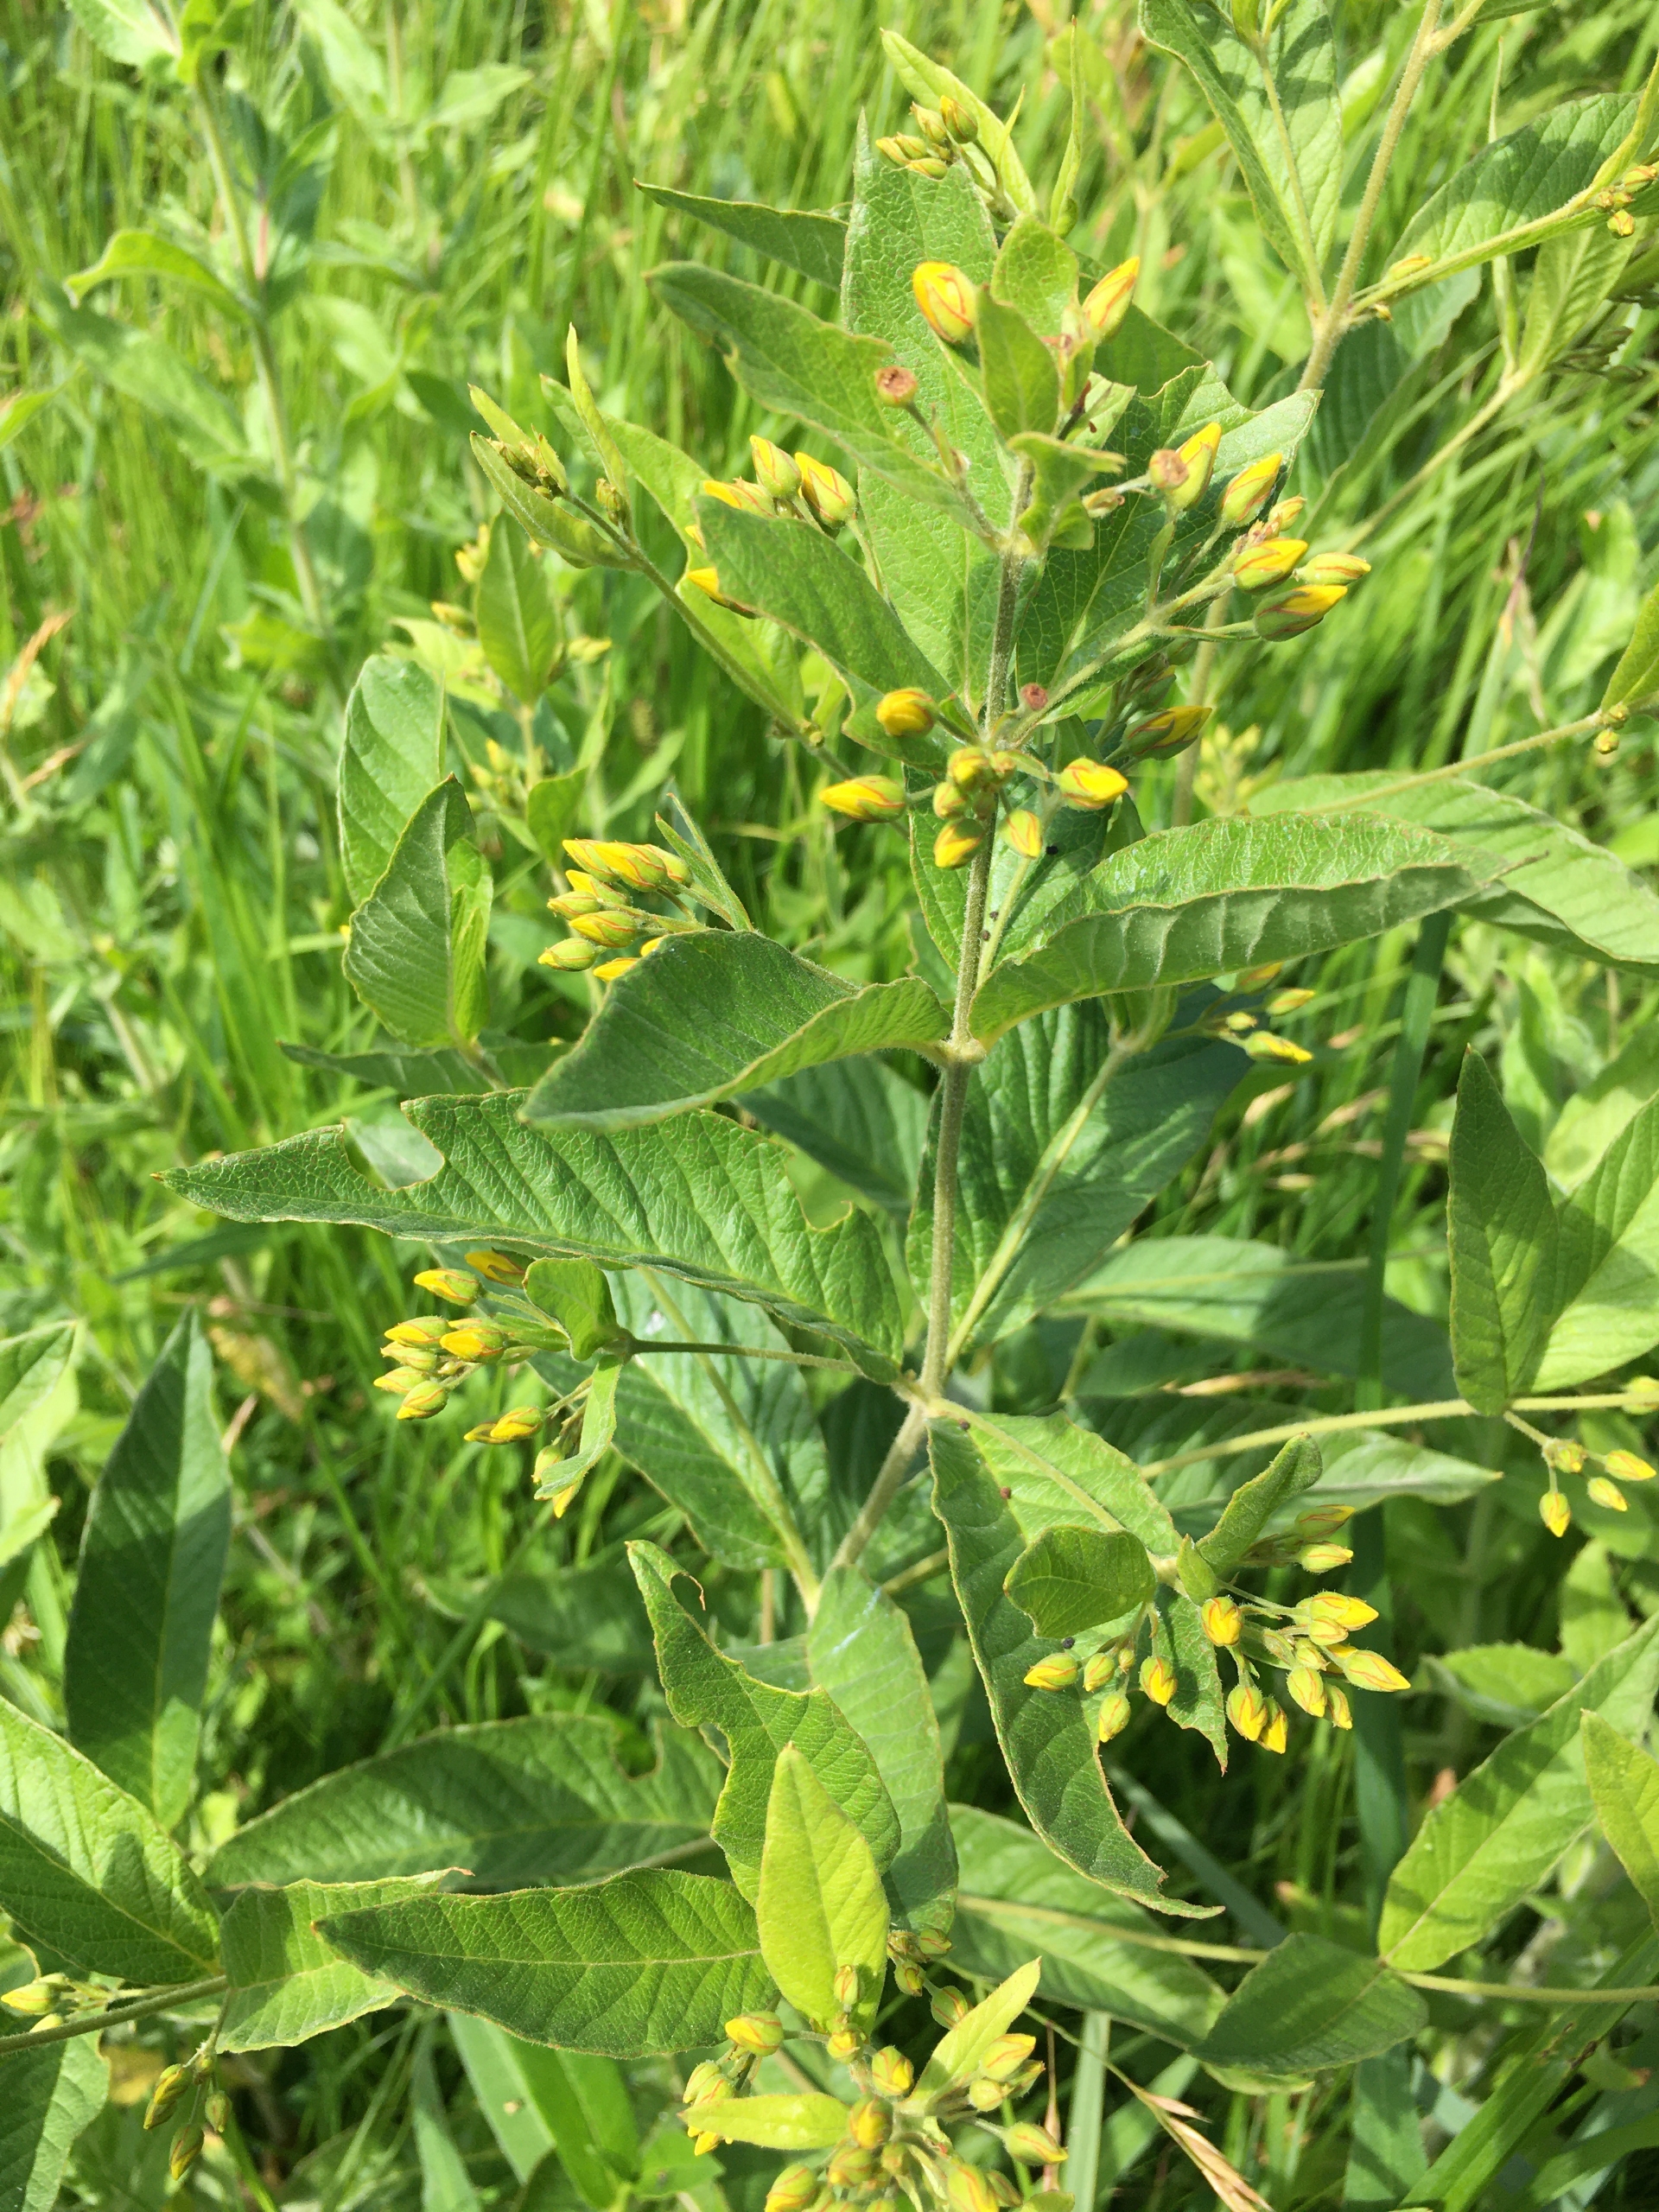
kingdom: Plantae
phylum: Tracheophyta
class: Magnoliopsida
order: Ericales
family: Primulaceae
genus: Lysimachia
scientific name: Lysimachia vulgaris
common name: Almindelig fredløs
